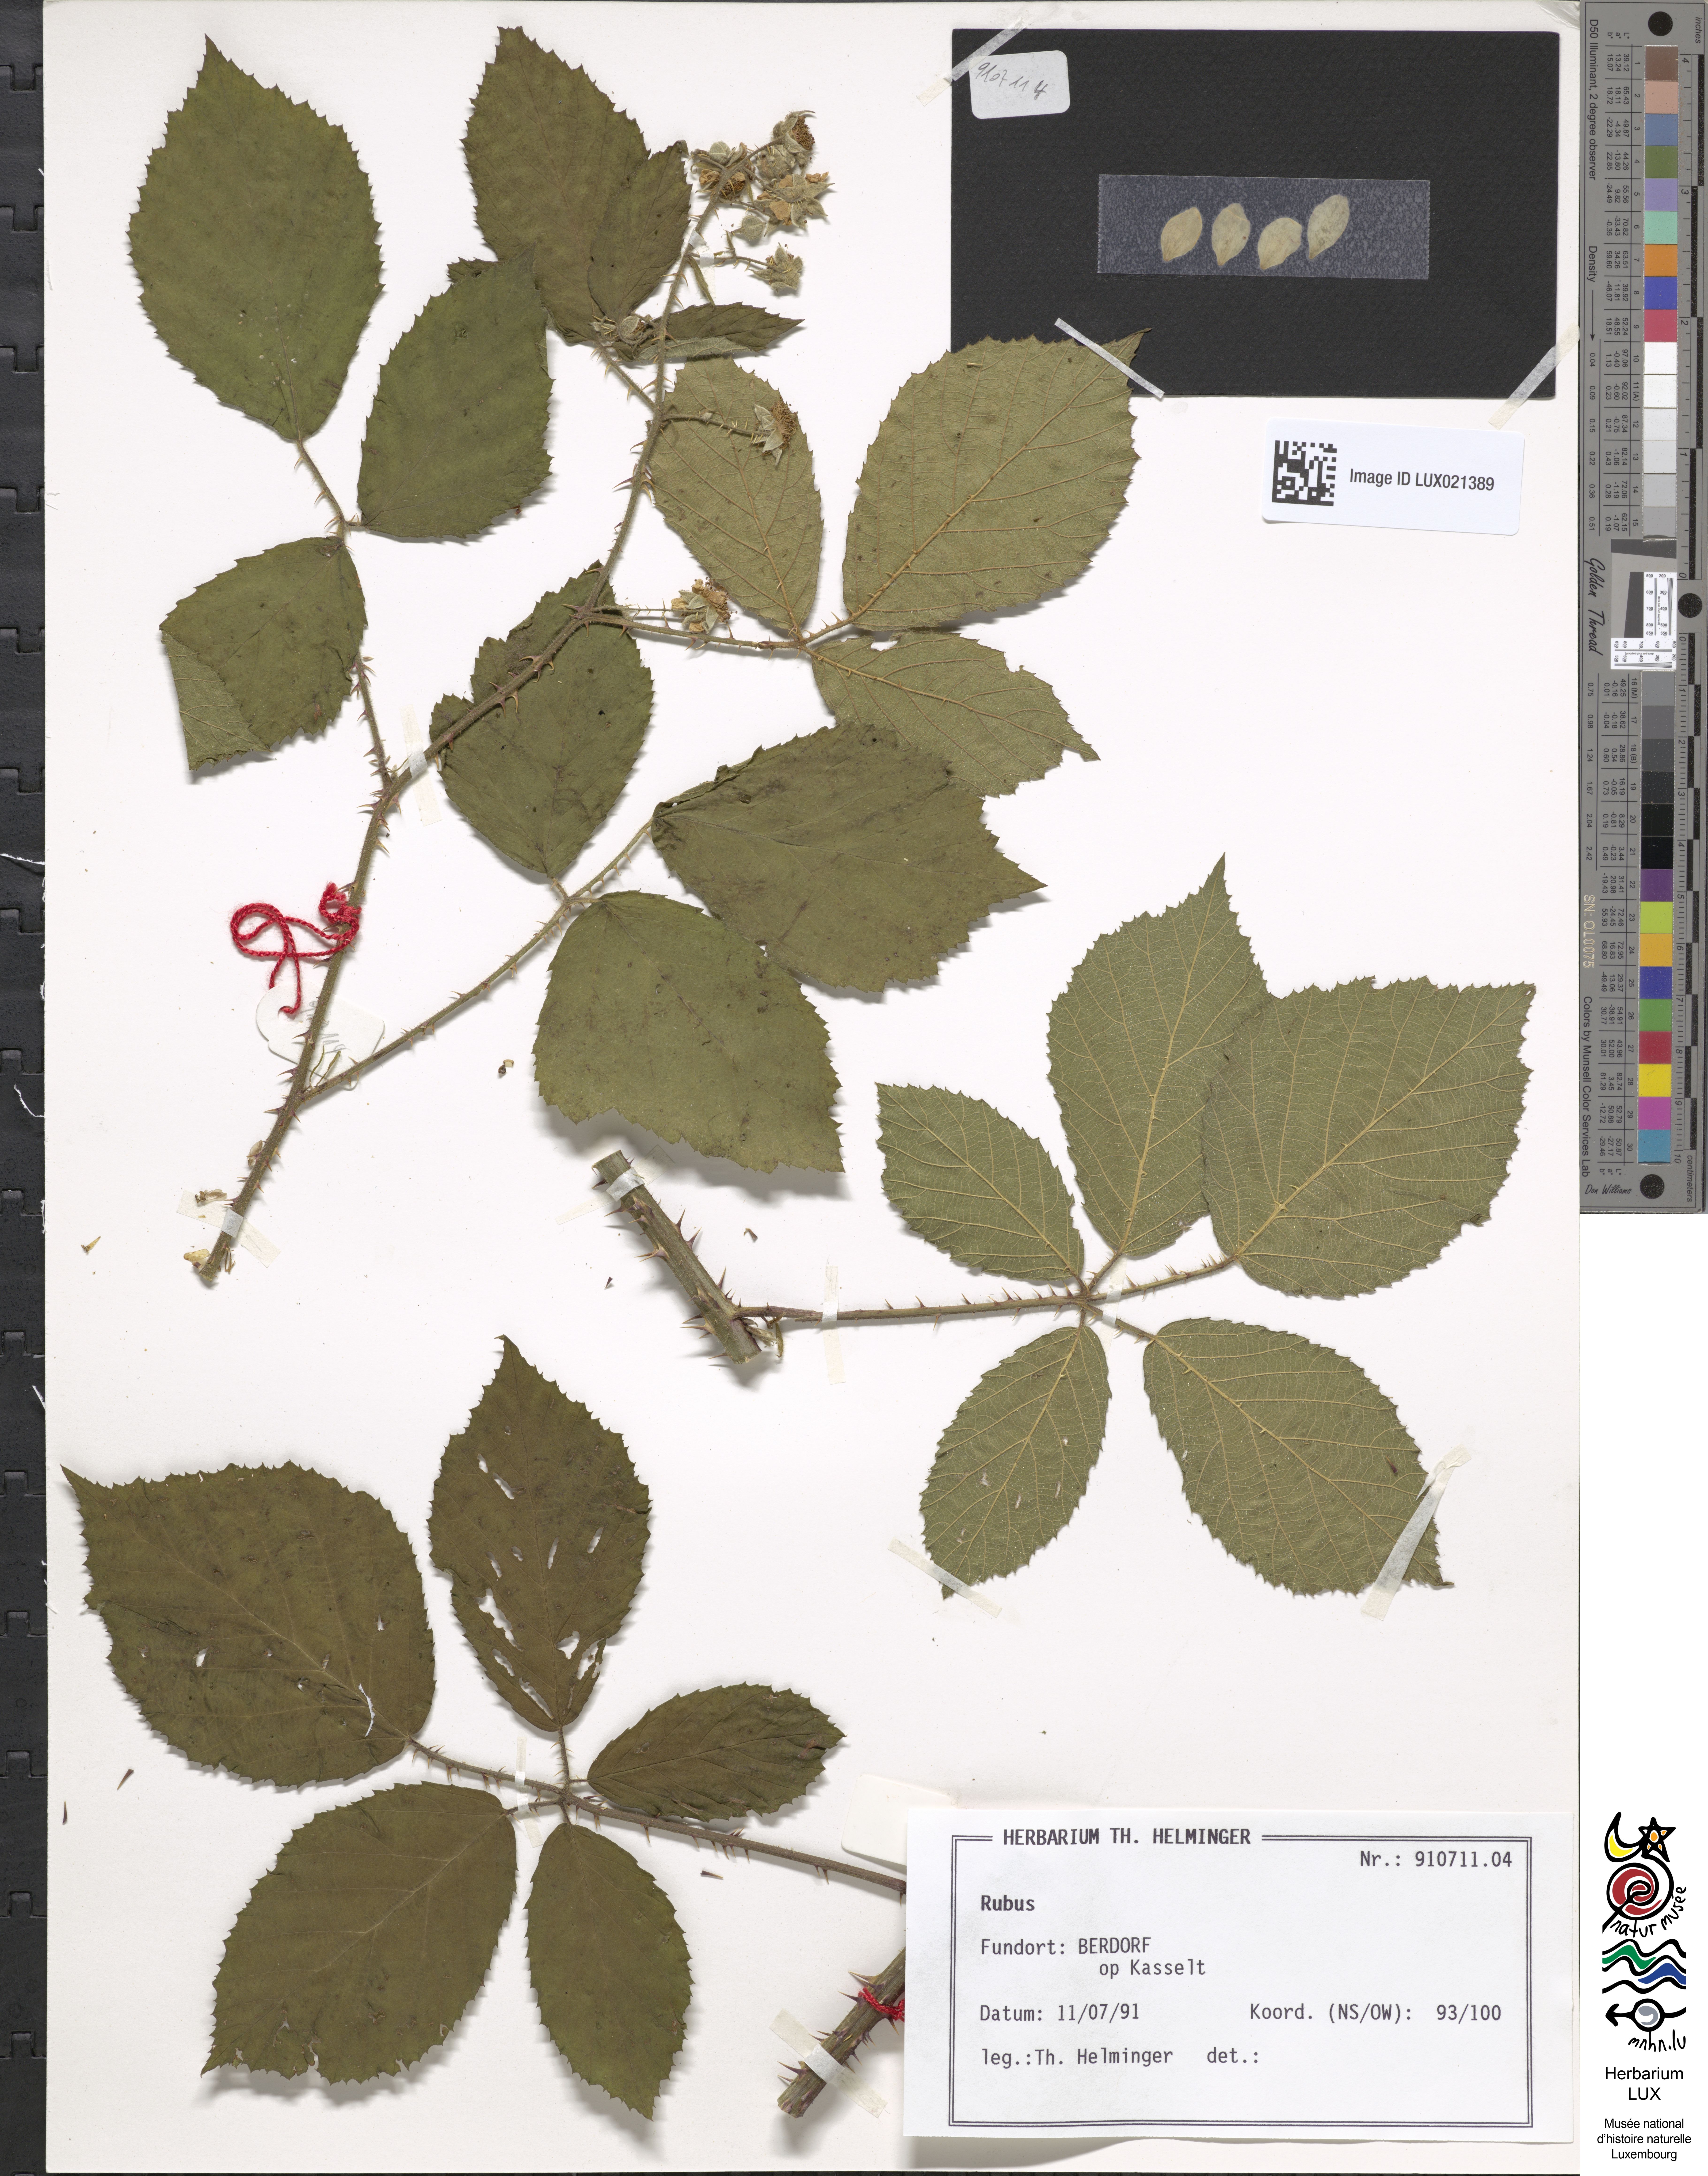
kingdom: Plantae
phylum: Tracheophyta
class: Magnoliopsida
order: Rosales
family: Rosaceae
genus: Rubus
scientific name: Rubus
